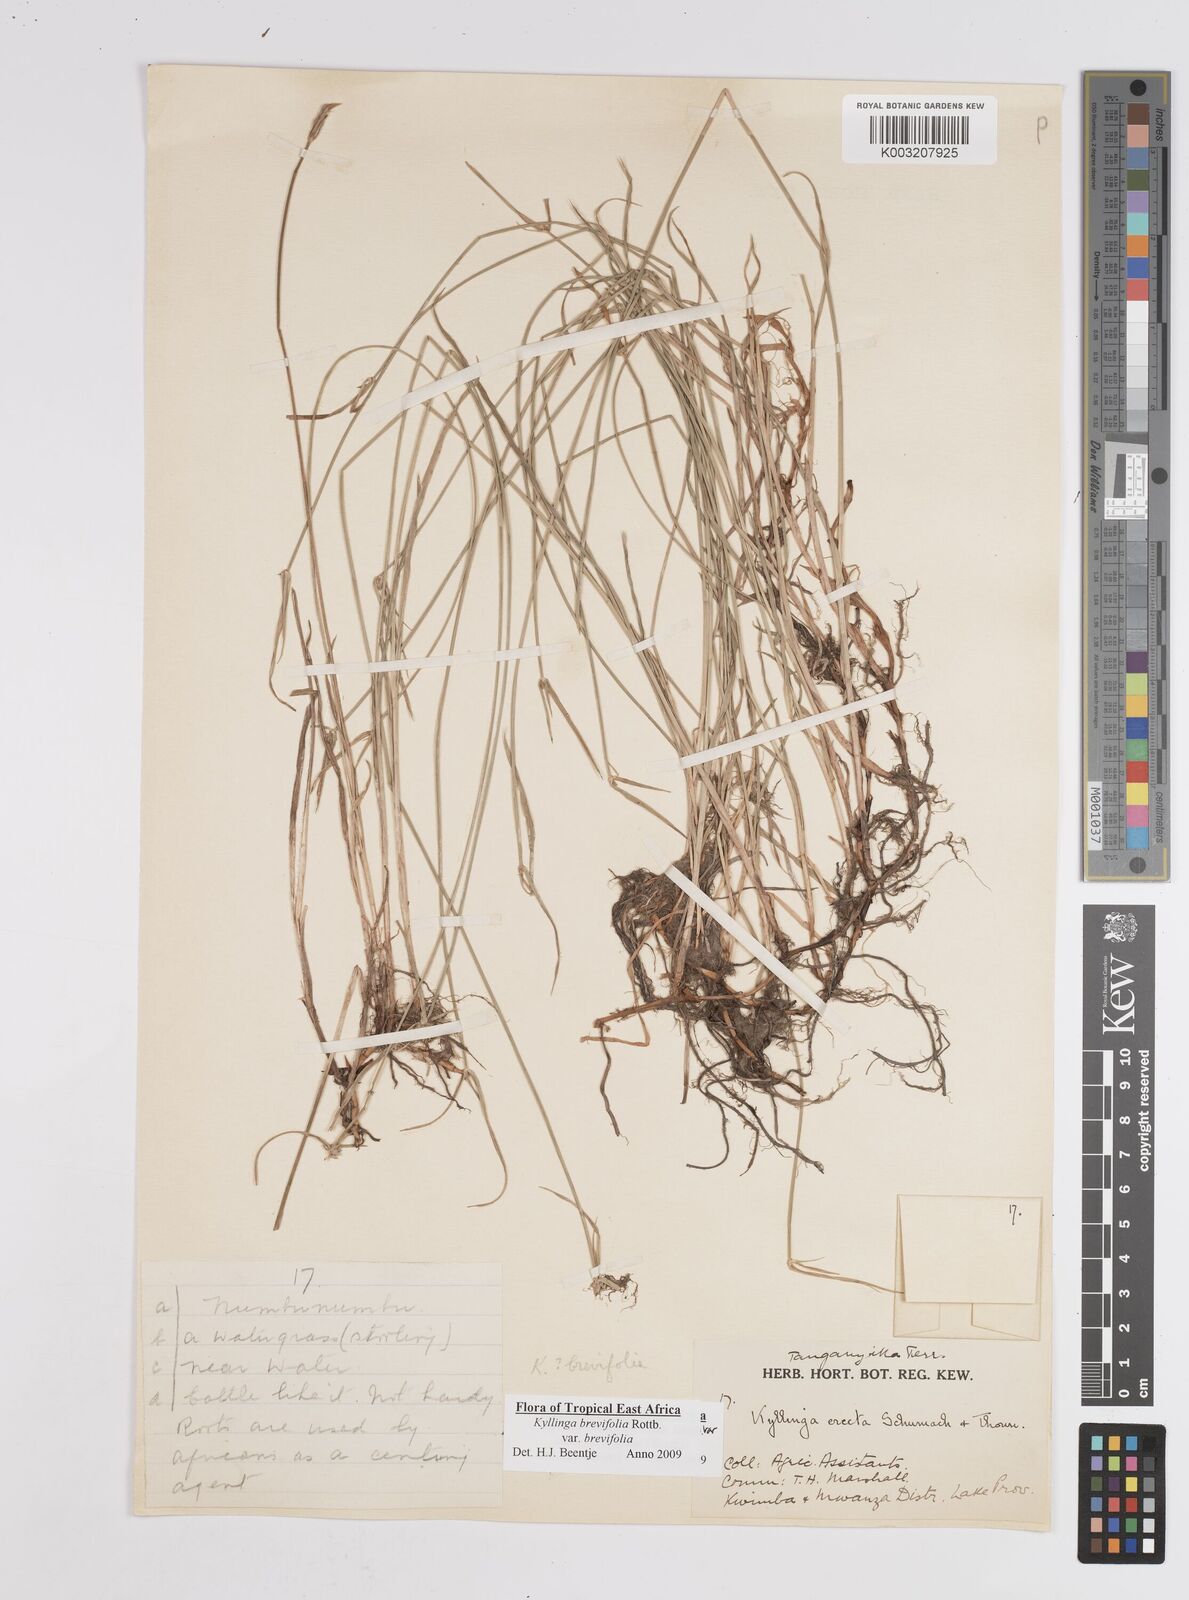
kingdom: Plantae
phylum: Tracheophyta
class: Liliopsida
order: Poales
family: Cyperaceae
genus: Cyperus
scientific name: Cyperus brevifolius
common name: Globe kyllinga
